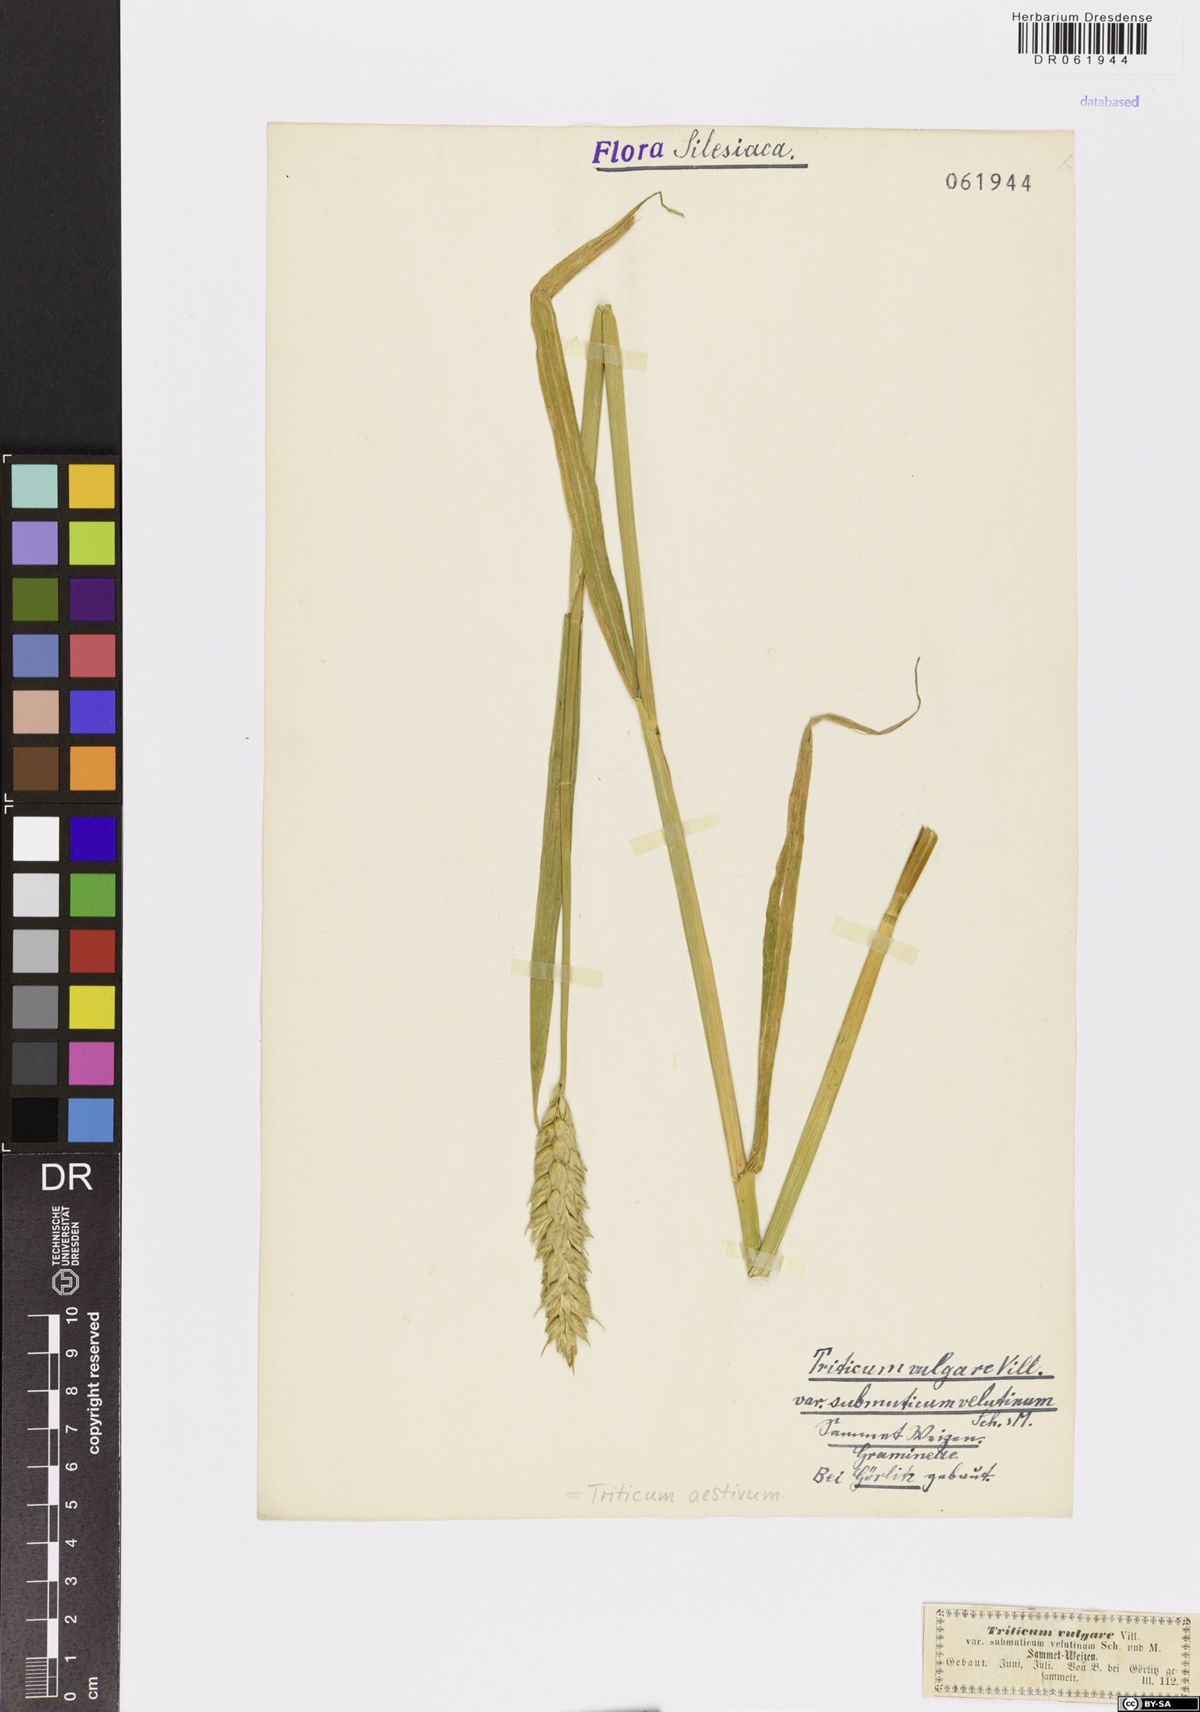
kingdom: Plantae
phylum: Tracheophyta
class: Liliopsida
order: Poales
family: Poaceae
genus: Triticum
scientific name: Triticum aestivum
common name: Common wheat
